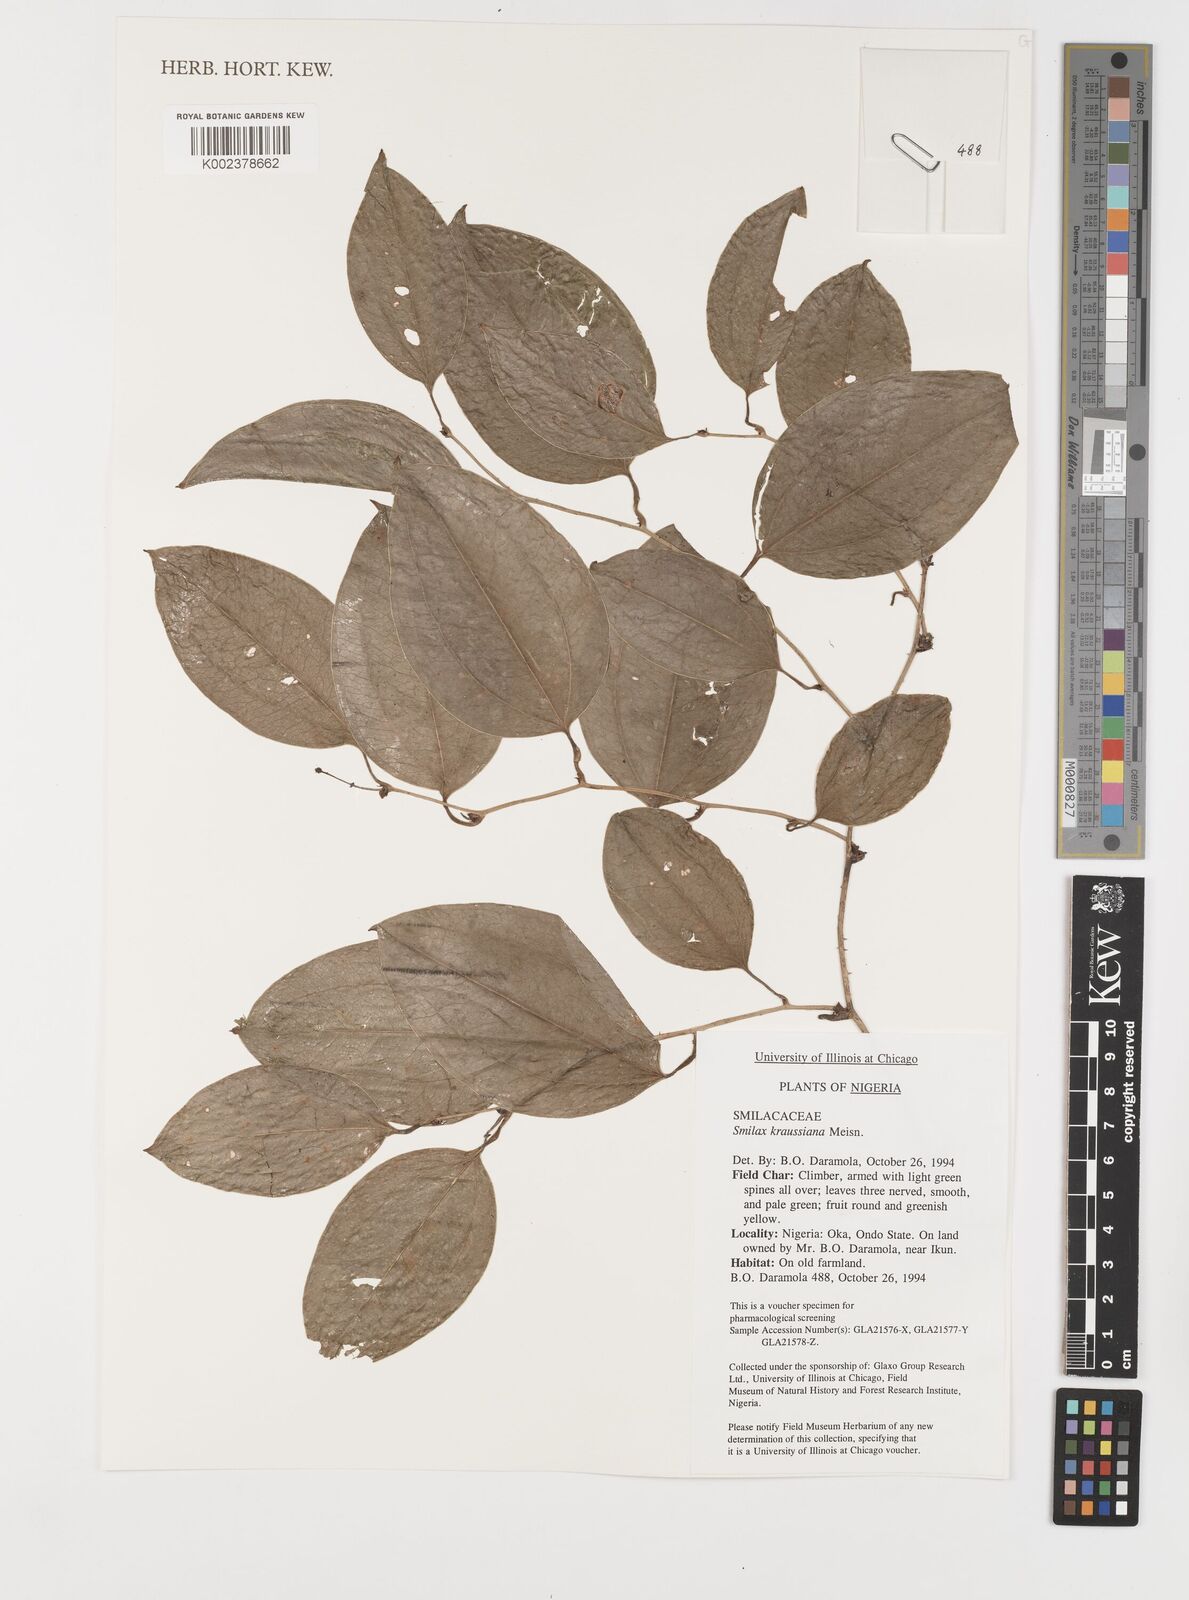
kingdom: Plantae
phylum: Tracheophyta
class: Liliopsida
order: Liliales
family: Smilacaceae
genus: Smilax
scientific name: Smilax anceps
